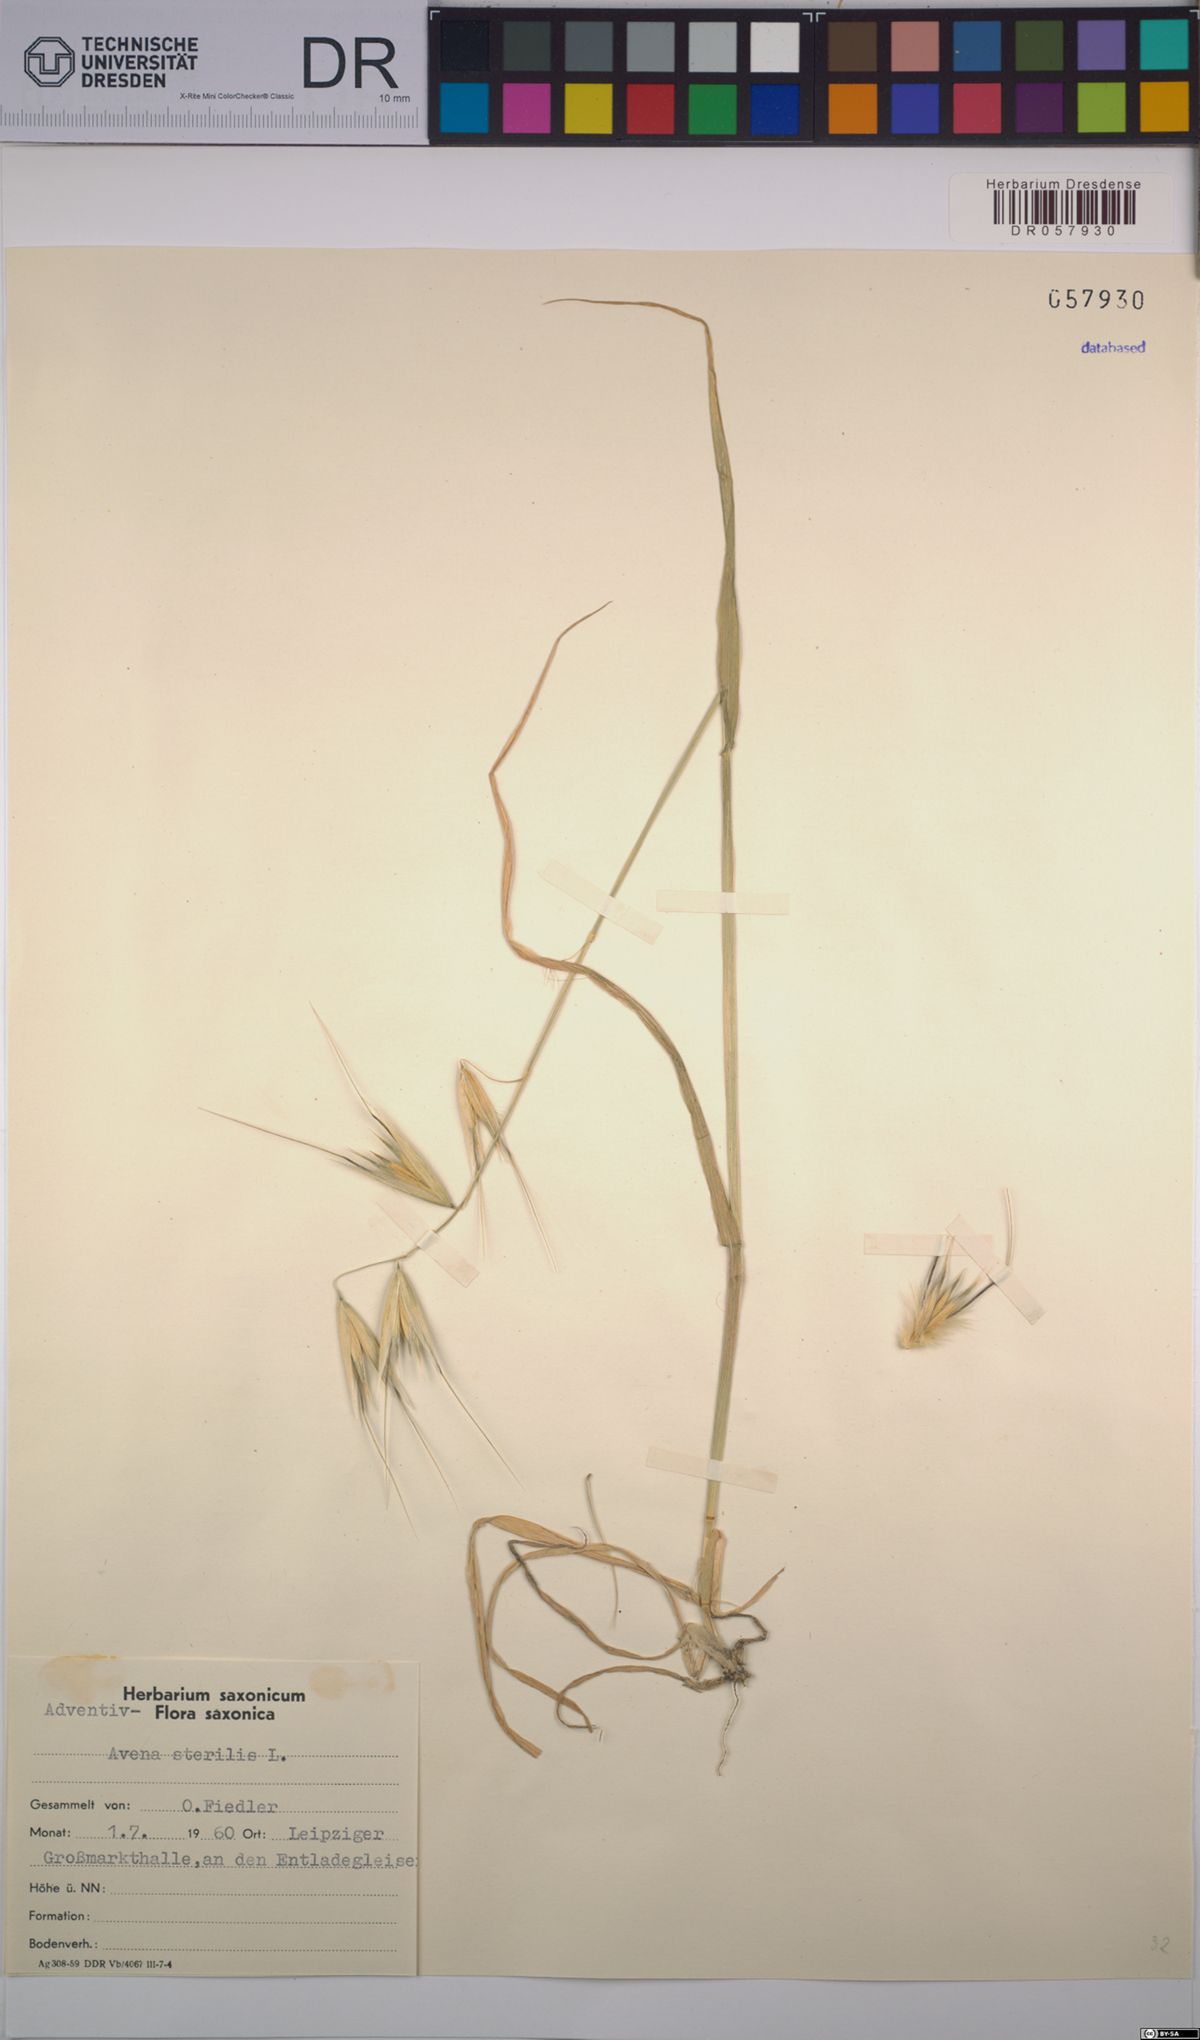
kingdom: Plantae
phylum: Tracheophyta
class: Liliopsida
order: Poales
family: Poaceae
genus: Avena
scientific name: Avena sterilis
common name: Animated oat
